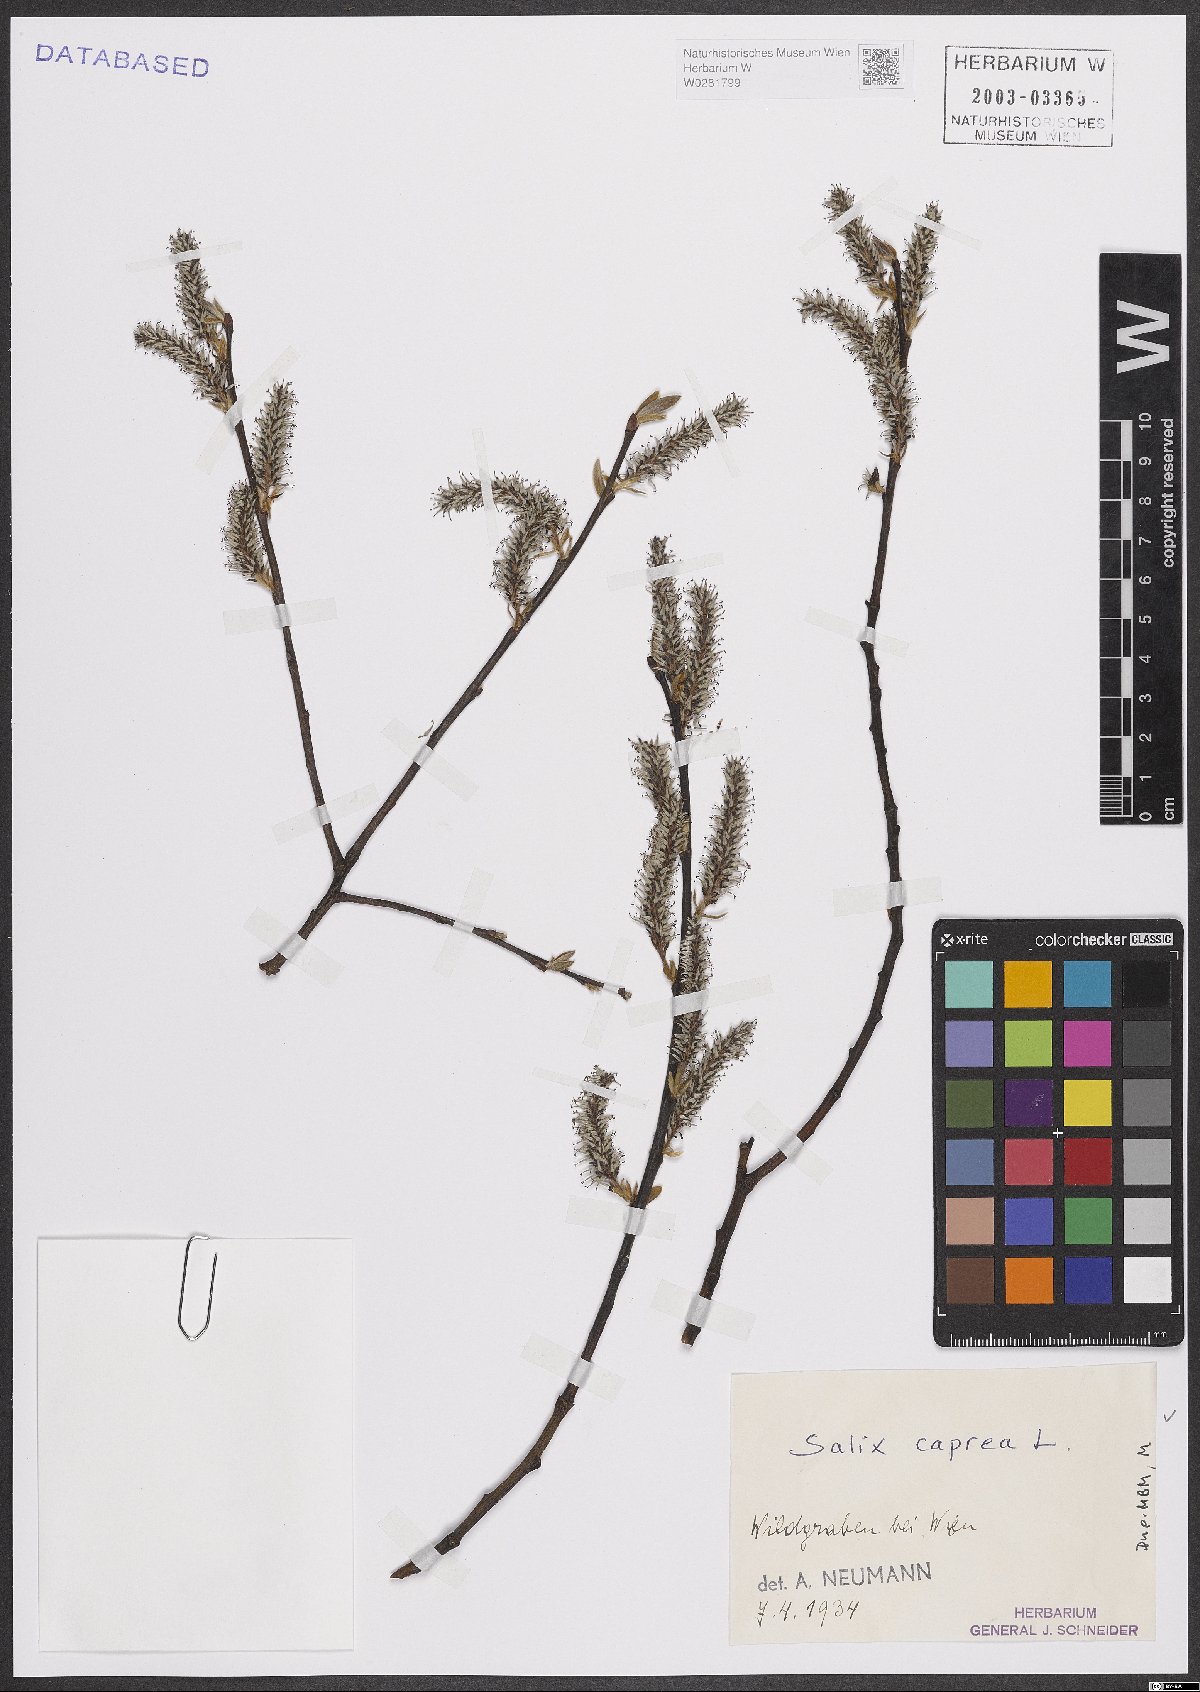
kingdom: Plantae
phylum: Tracheophyta
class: Magnoliopsida
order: Malpighiales
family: Salicaceae
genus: Salix
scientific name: Salix caprea
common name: Goat willow
